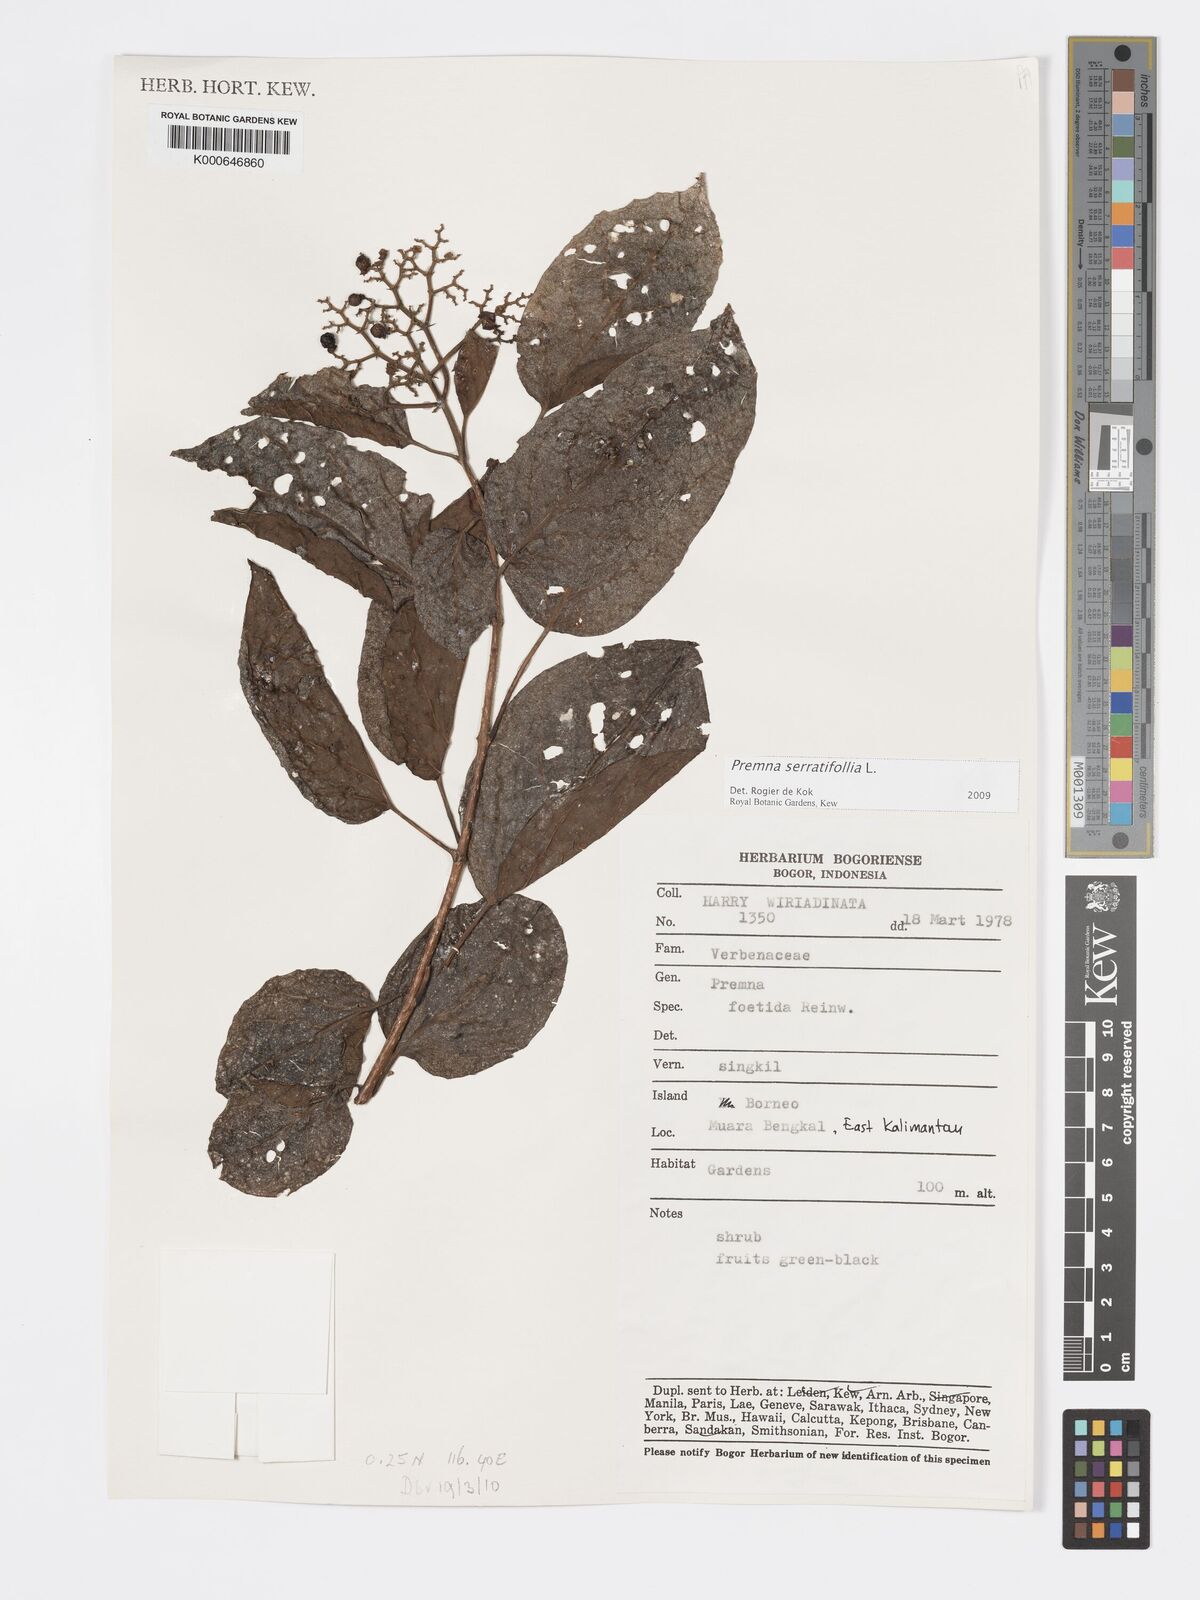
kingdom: Plantae
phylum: Tracheophyta
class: Magnoliopsida
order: Lamiales
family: Lamiaceae
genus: Premna
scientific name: Premna serratifolia
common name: Bastard guelder
